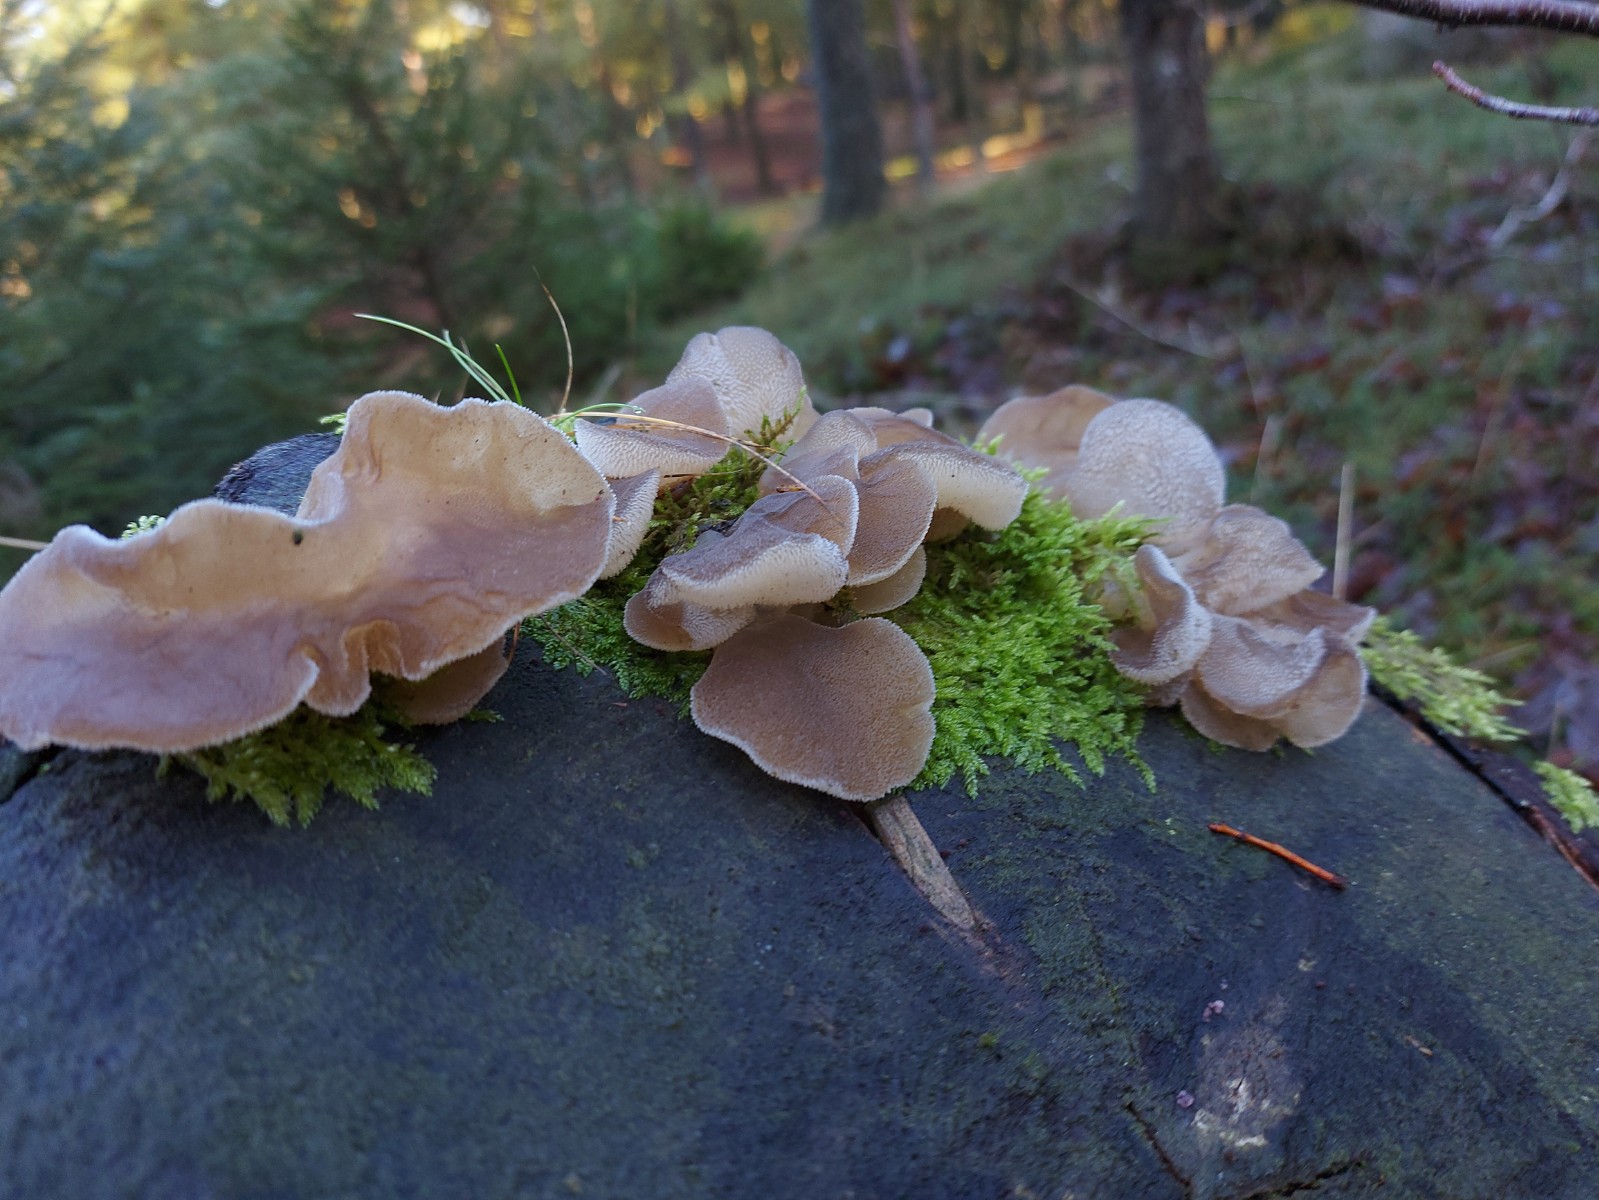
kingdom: Fungi
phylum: Basidiomycota
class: Agaricomycetes
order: Auriculariales
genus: Pseudohydnum
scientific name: Pseudohydnum gelatinosum
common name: bævretand
